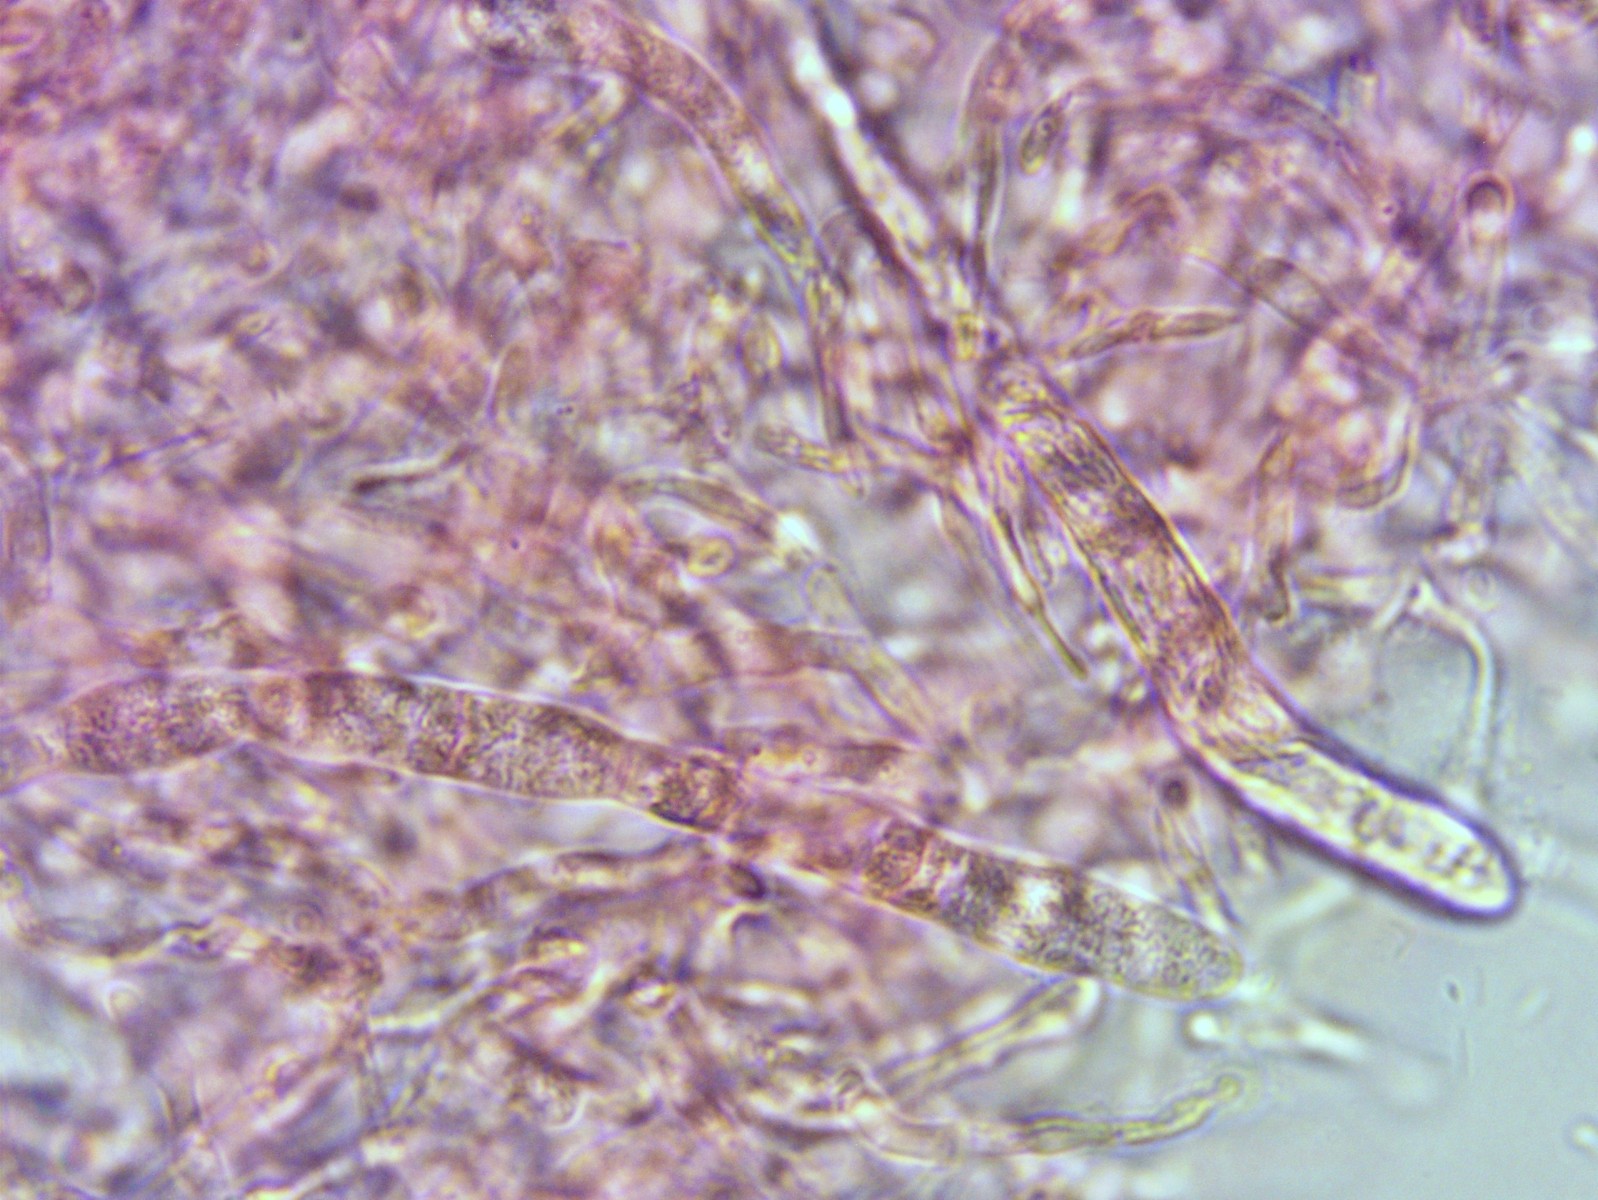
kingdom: Fungi
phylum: Basidiomycota
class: Agaricomycetes
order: Russulales
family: Russulaceae
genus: Russula
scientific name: Russula roseocremea
